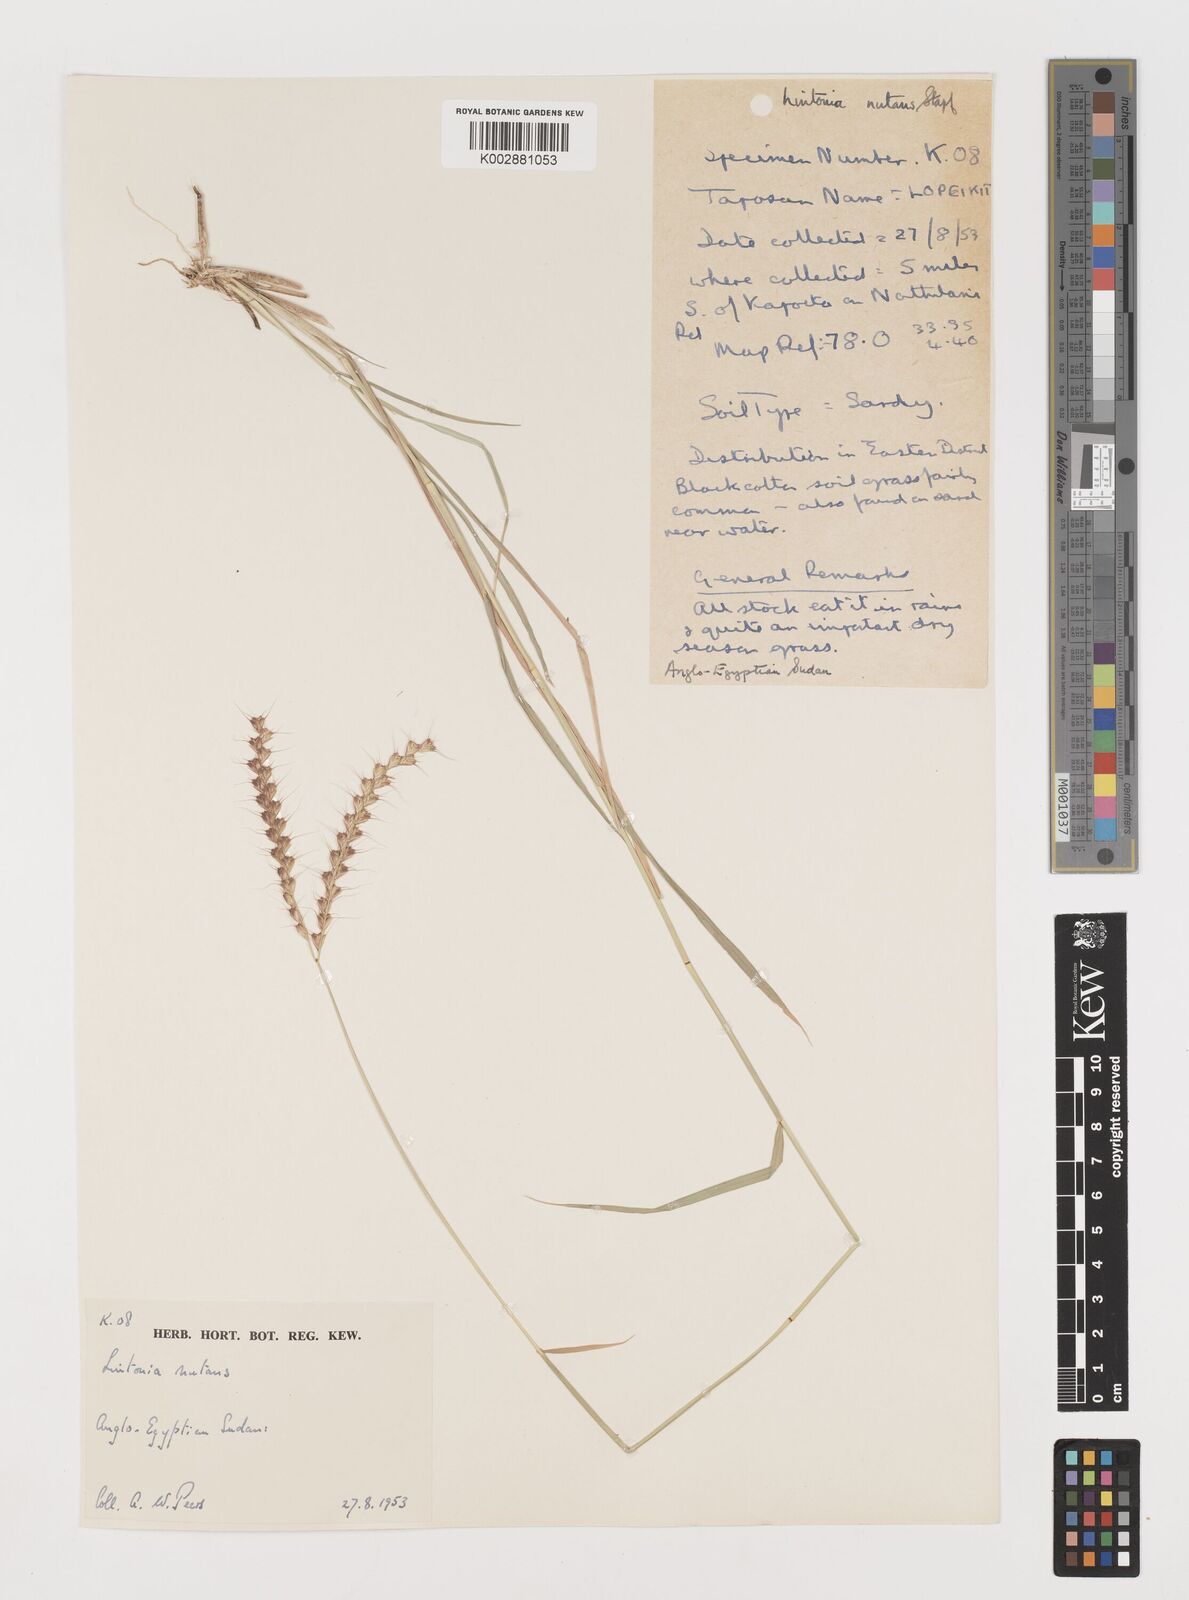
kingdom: Plantae
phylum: Tracheophyta
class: Liliopsida
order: Poales
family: Poaceae
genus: Chloris
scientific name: Chloris nutans
